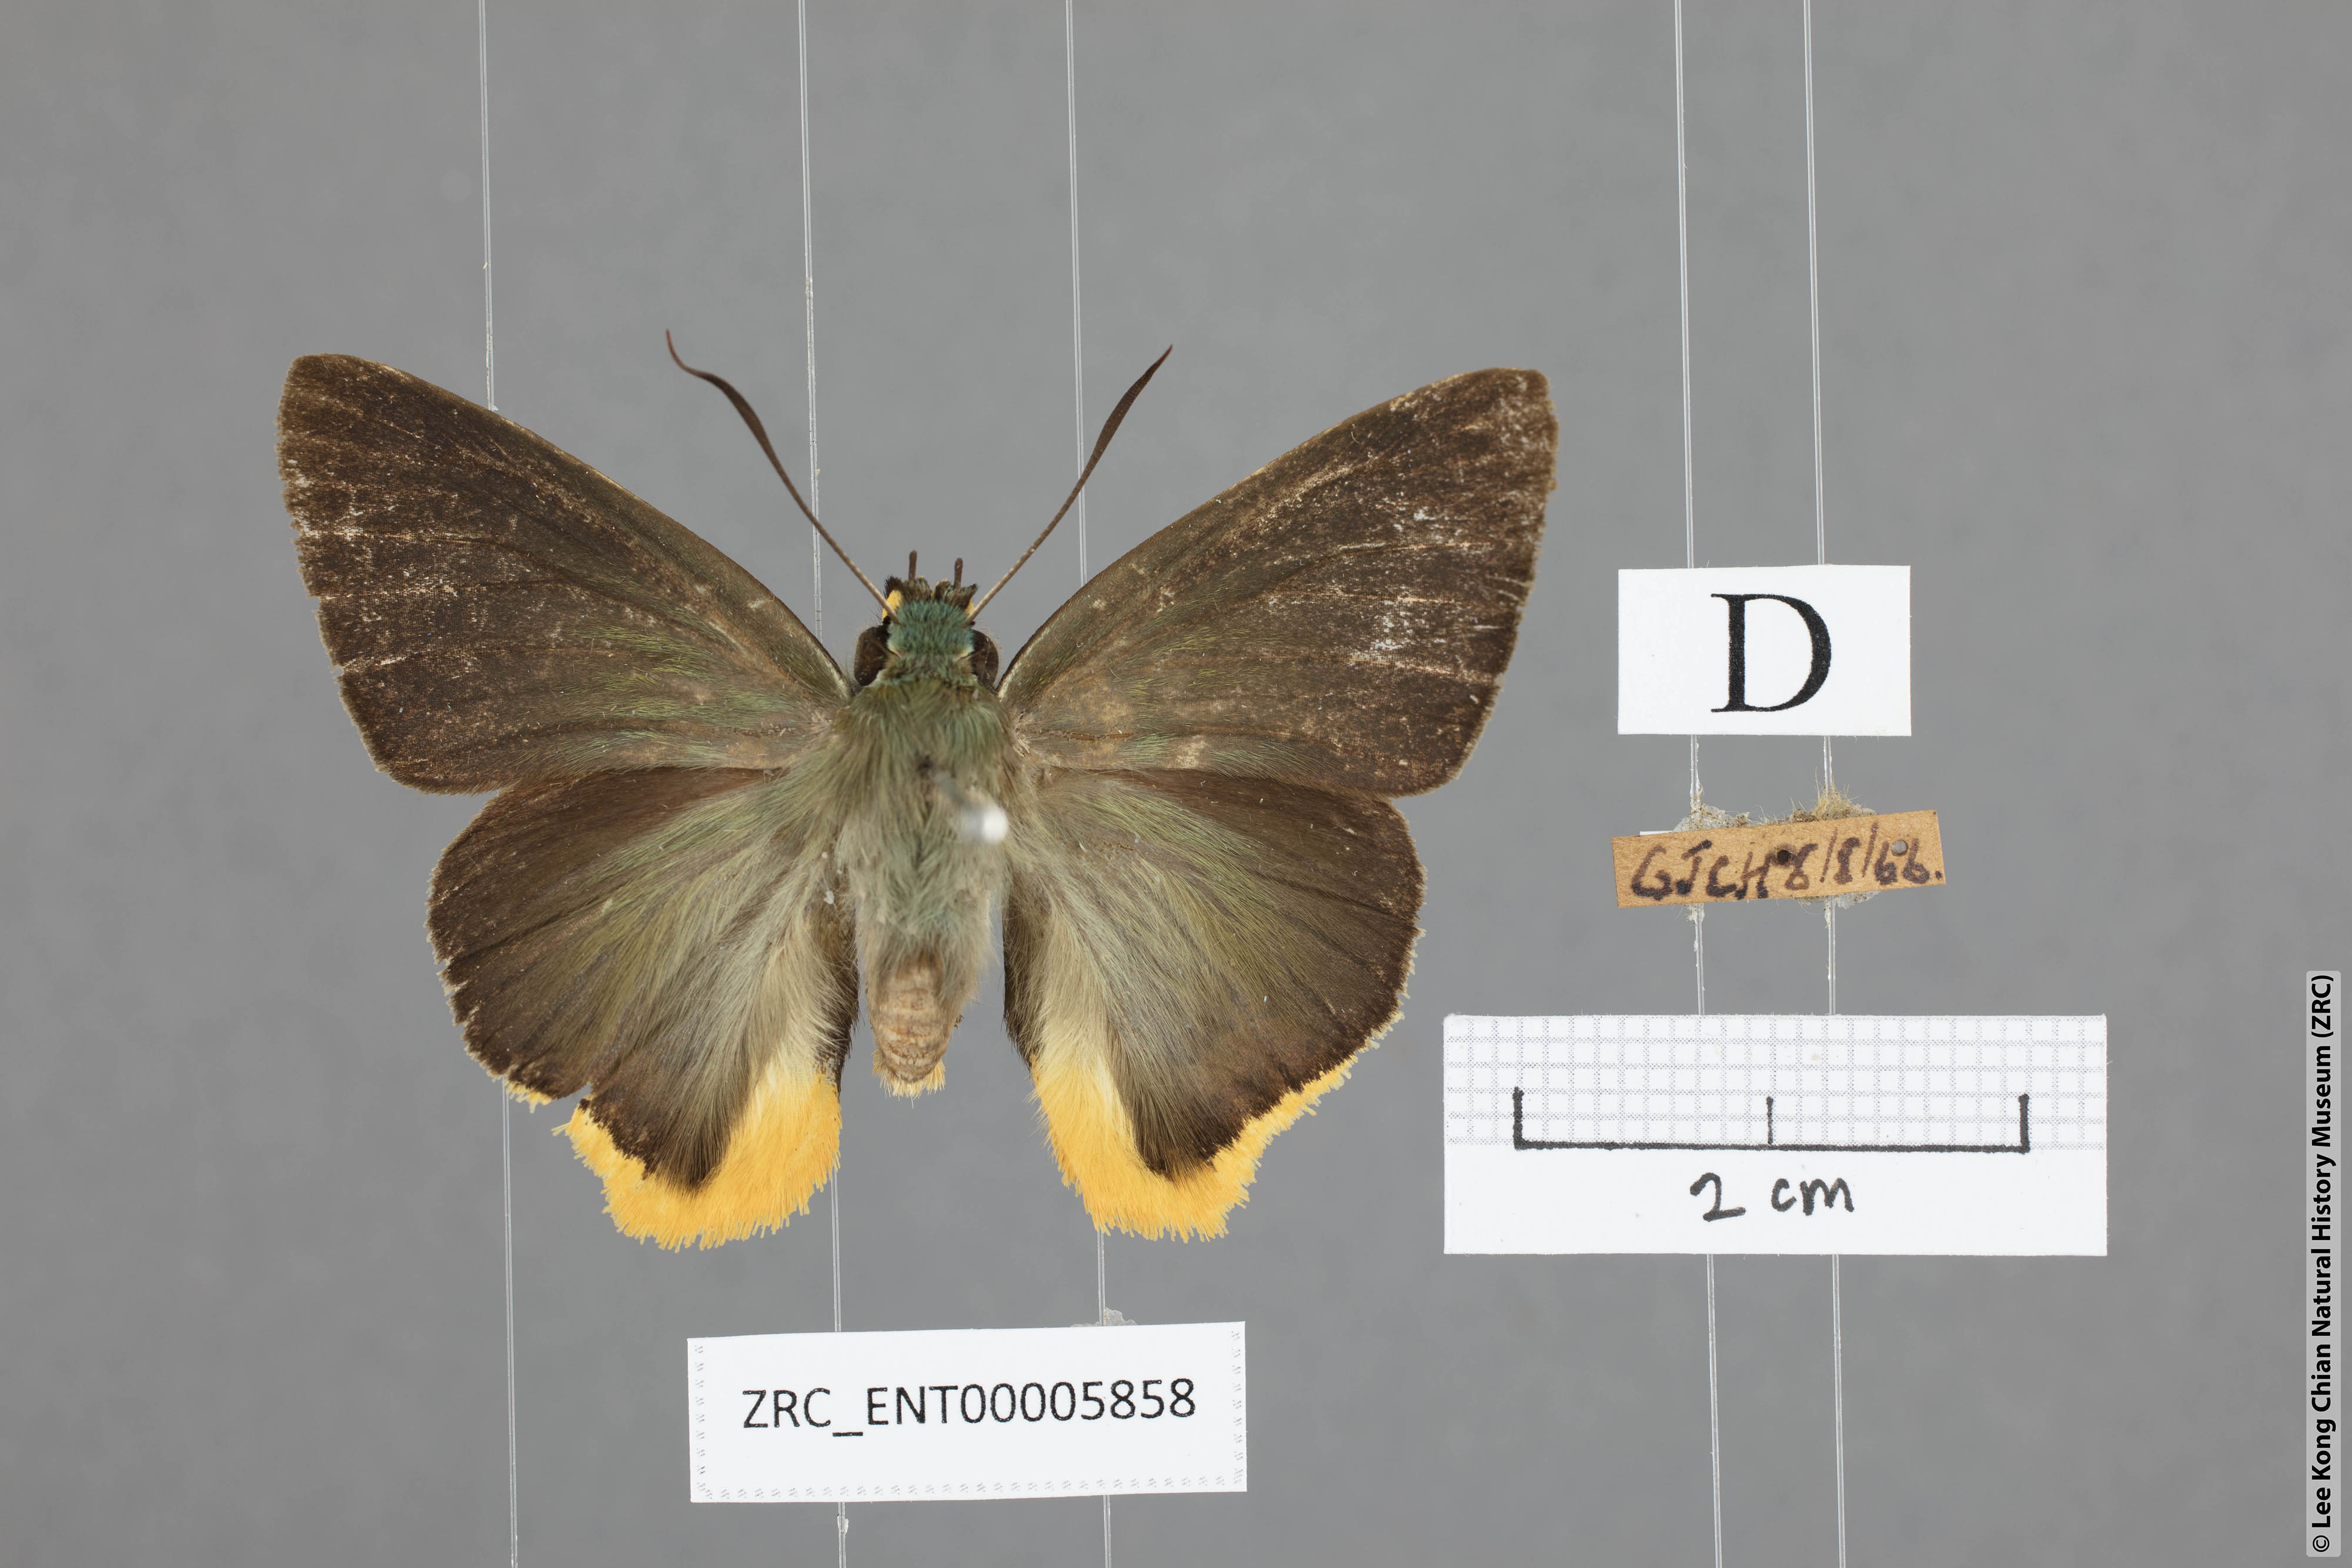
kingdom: Animalia
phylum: Arthropoda
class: Insecta
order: Lepidoptera
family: Hesperiidae
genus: Choaspes
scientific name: Choaspes benjaminii
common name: Indian awlking
